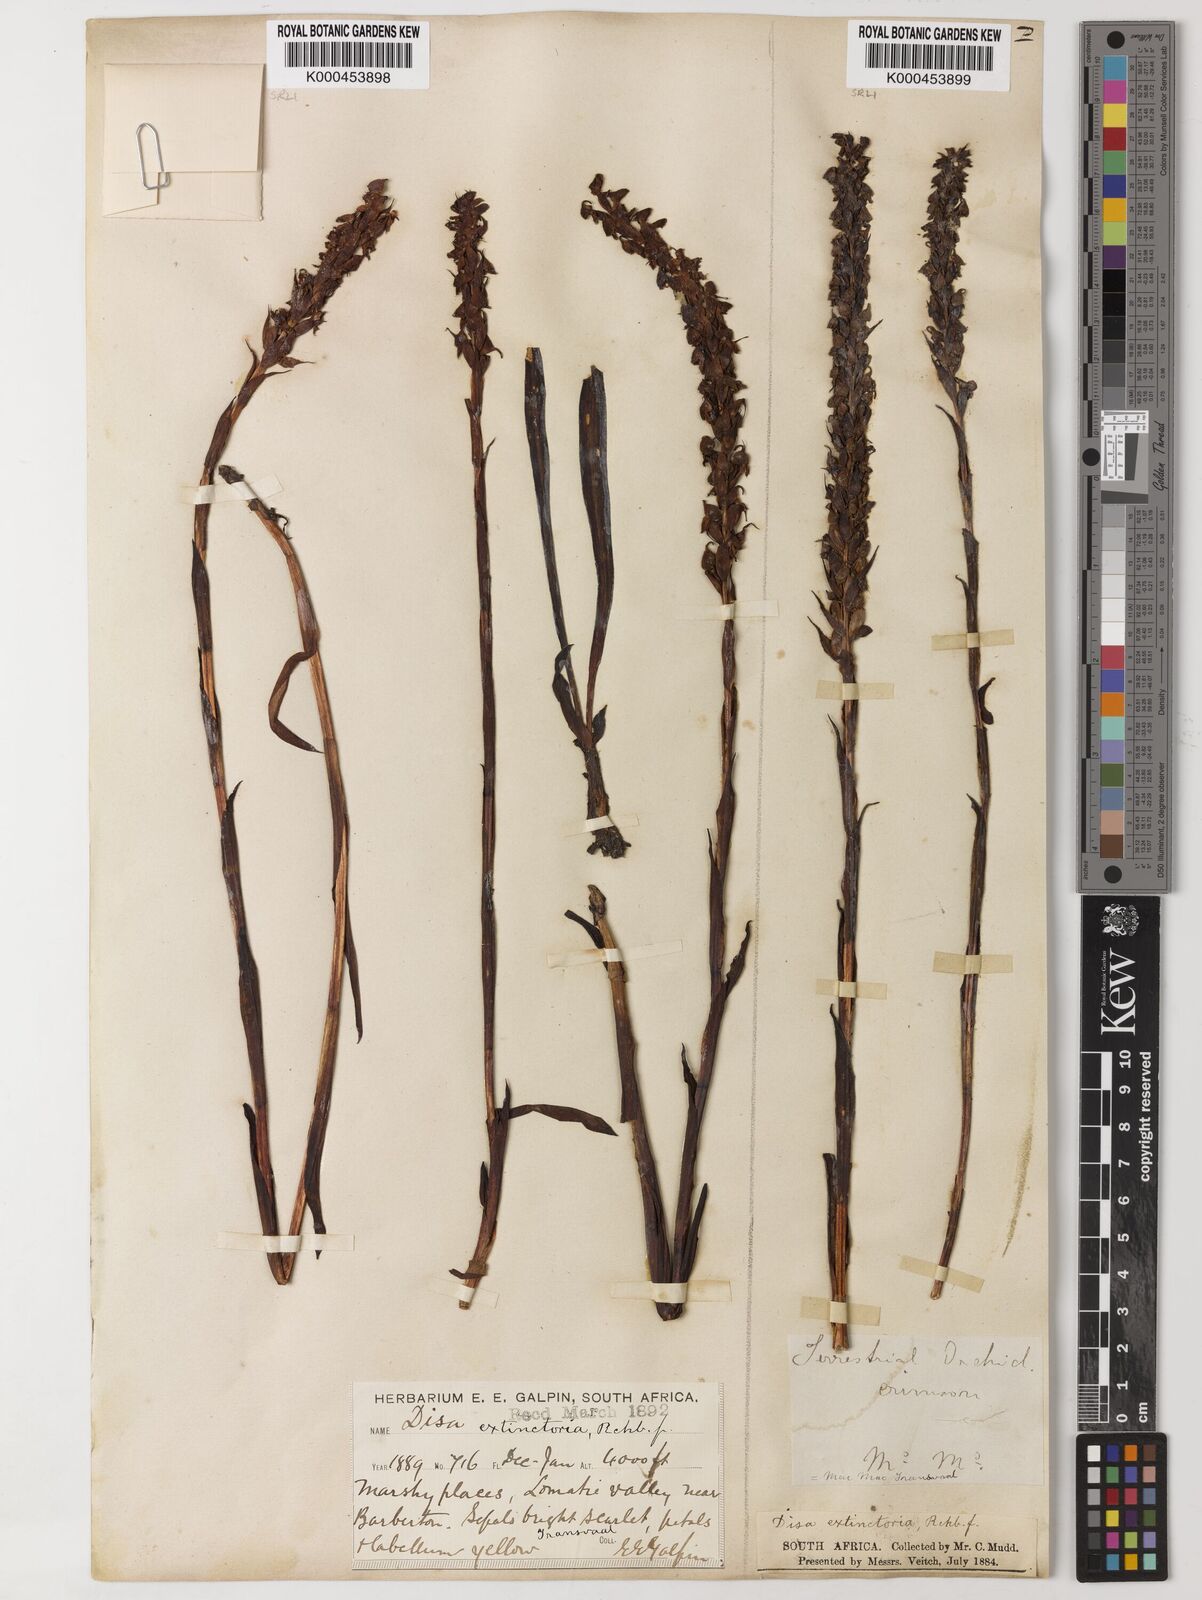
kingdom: Plantae
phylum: Tracheophyta
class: Liliopsida
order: Asparagales
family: Orchidaceae
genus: Disa
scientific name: Disa extinctoria
